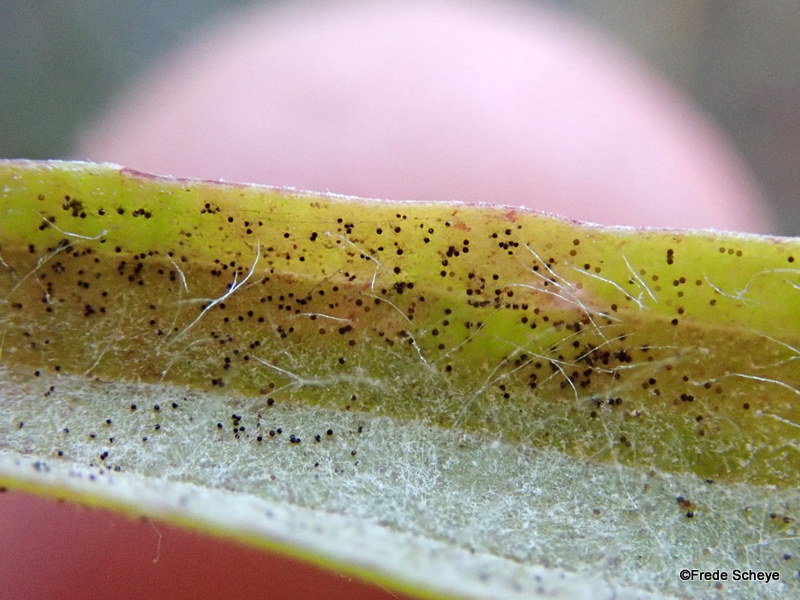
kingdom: Fungi
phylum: Ascomycota
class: Leotiomycetes
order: Helotiales
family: Erysiphaceae
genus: Podosphaera
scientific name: Podosphaera plantaginis
